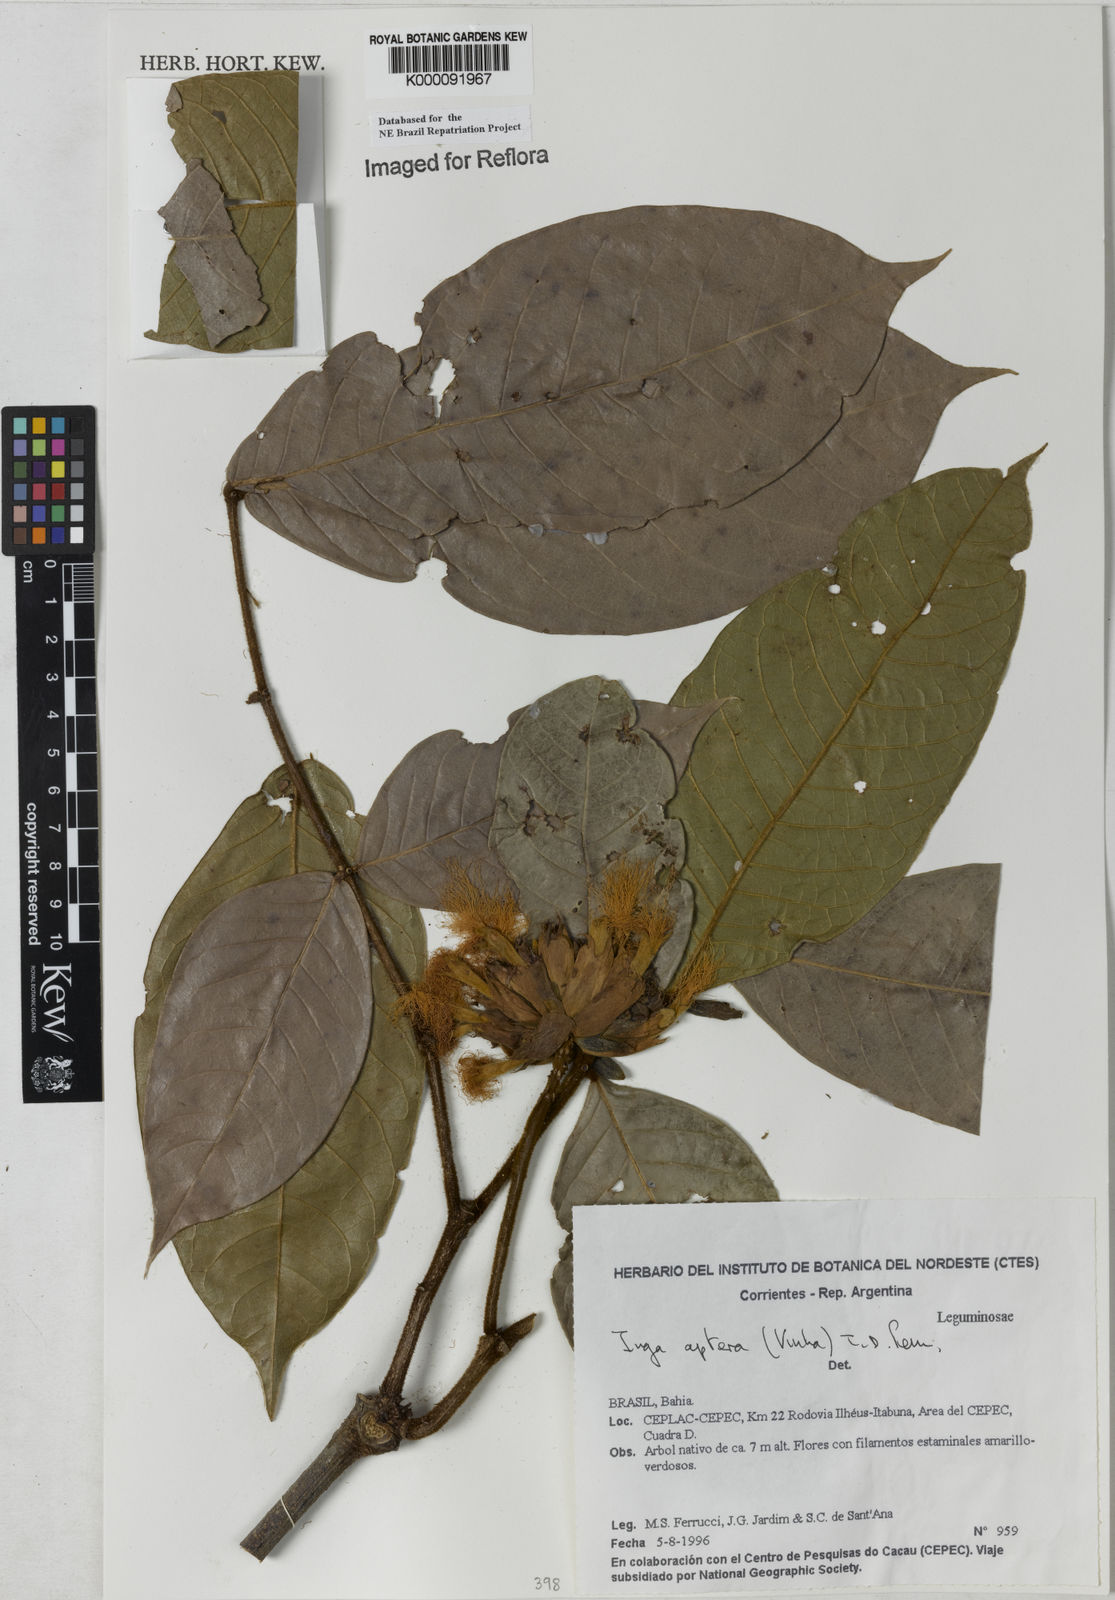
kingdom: Plantae
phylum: Tracheophyta
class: Magnoliopsida
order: Fabales
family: Fabaceae
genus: Inga
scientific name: Inga aptera
